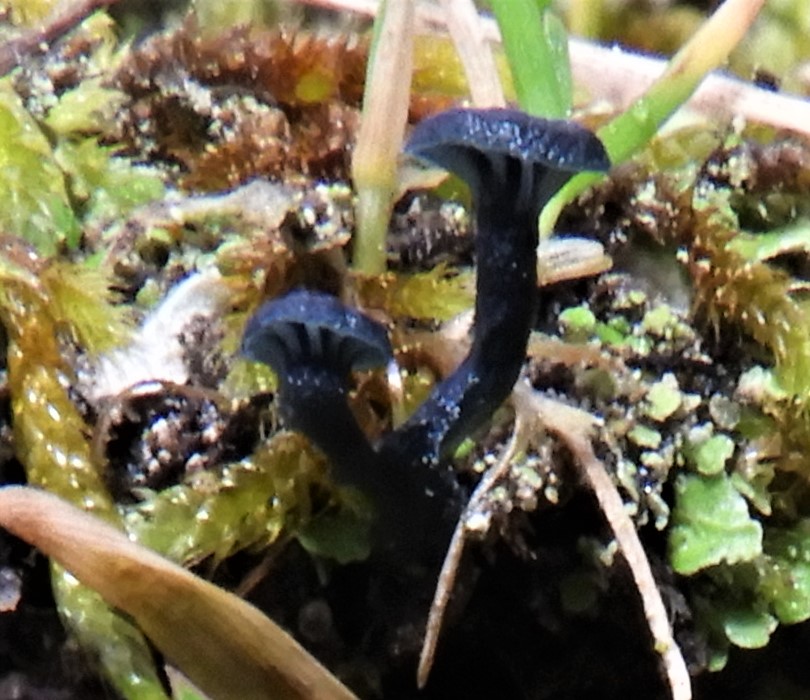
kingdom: Fungi
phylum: Basidiomycota
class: Agaricomycetes
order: Agaricales
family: Hygrophoraceae
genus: Arrhenia
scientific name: Arrhenia chlorocyanea
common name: blågrøn fontænehat
